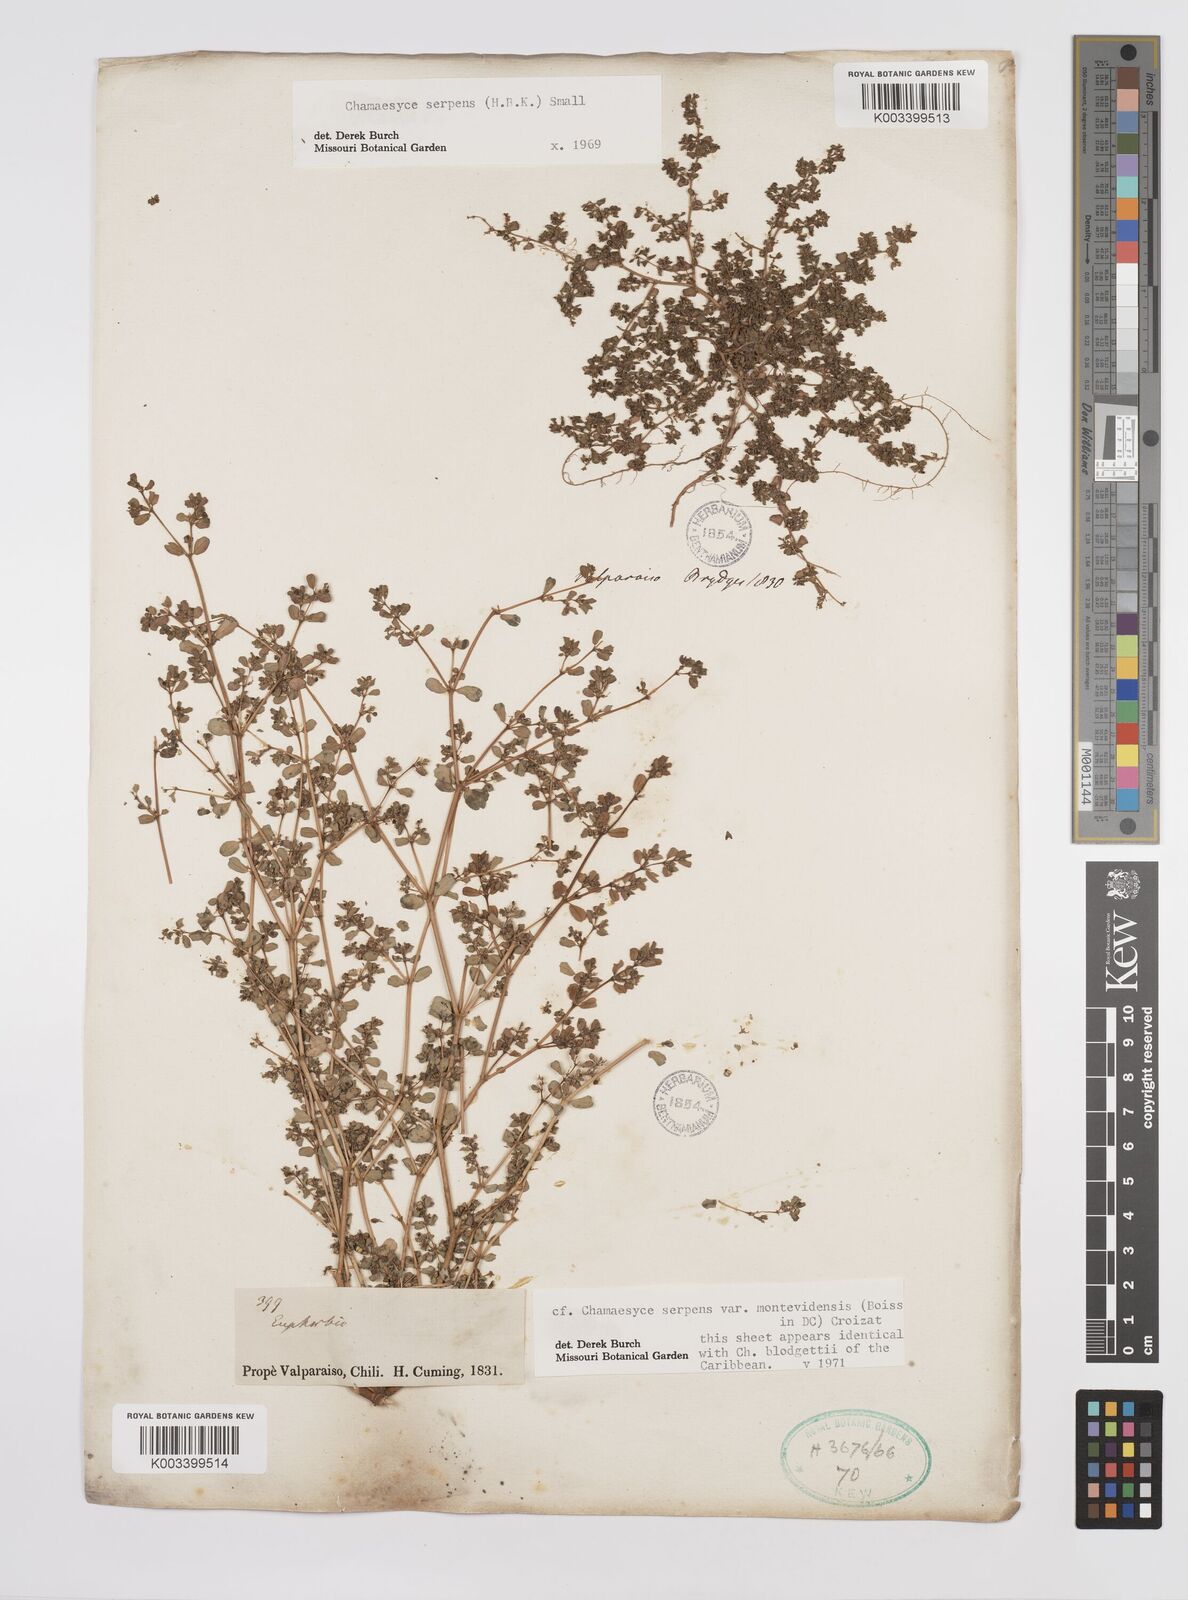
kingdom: Plantae
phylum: Tracheophyta
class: Magnoliopsida
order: Malpighiales
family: Euphorbiaceae
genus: Euphorbia
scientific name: Euphorbia
